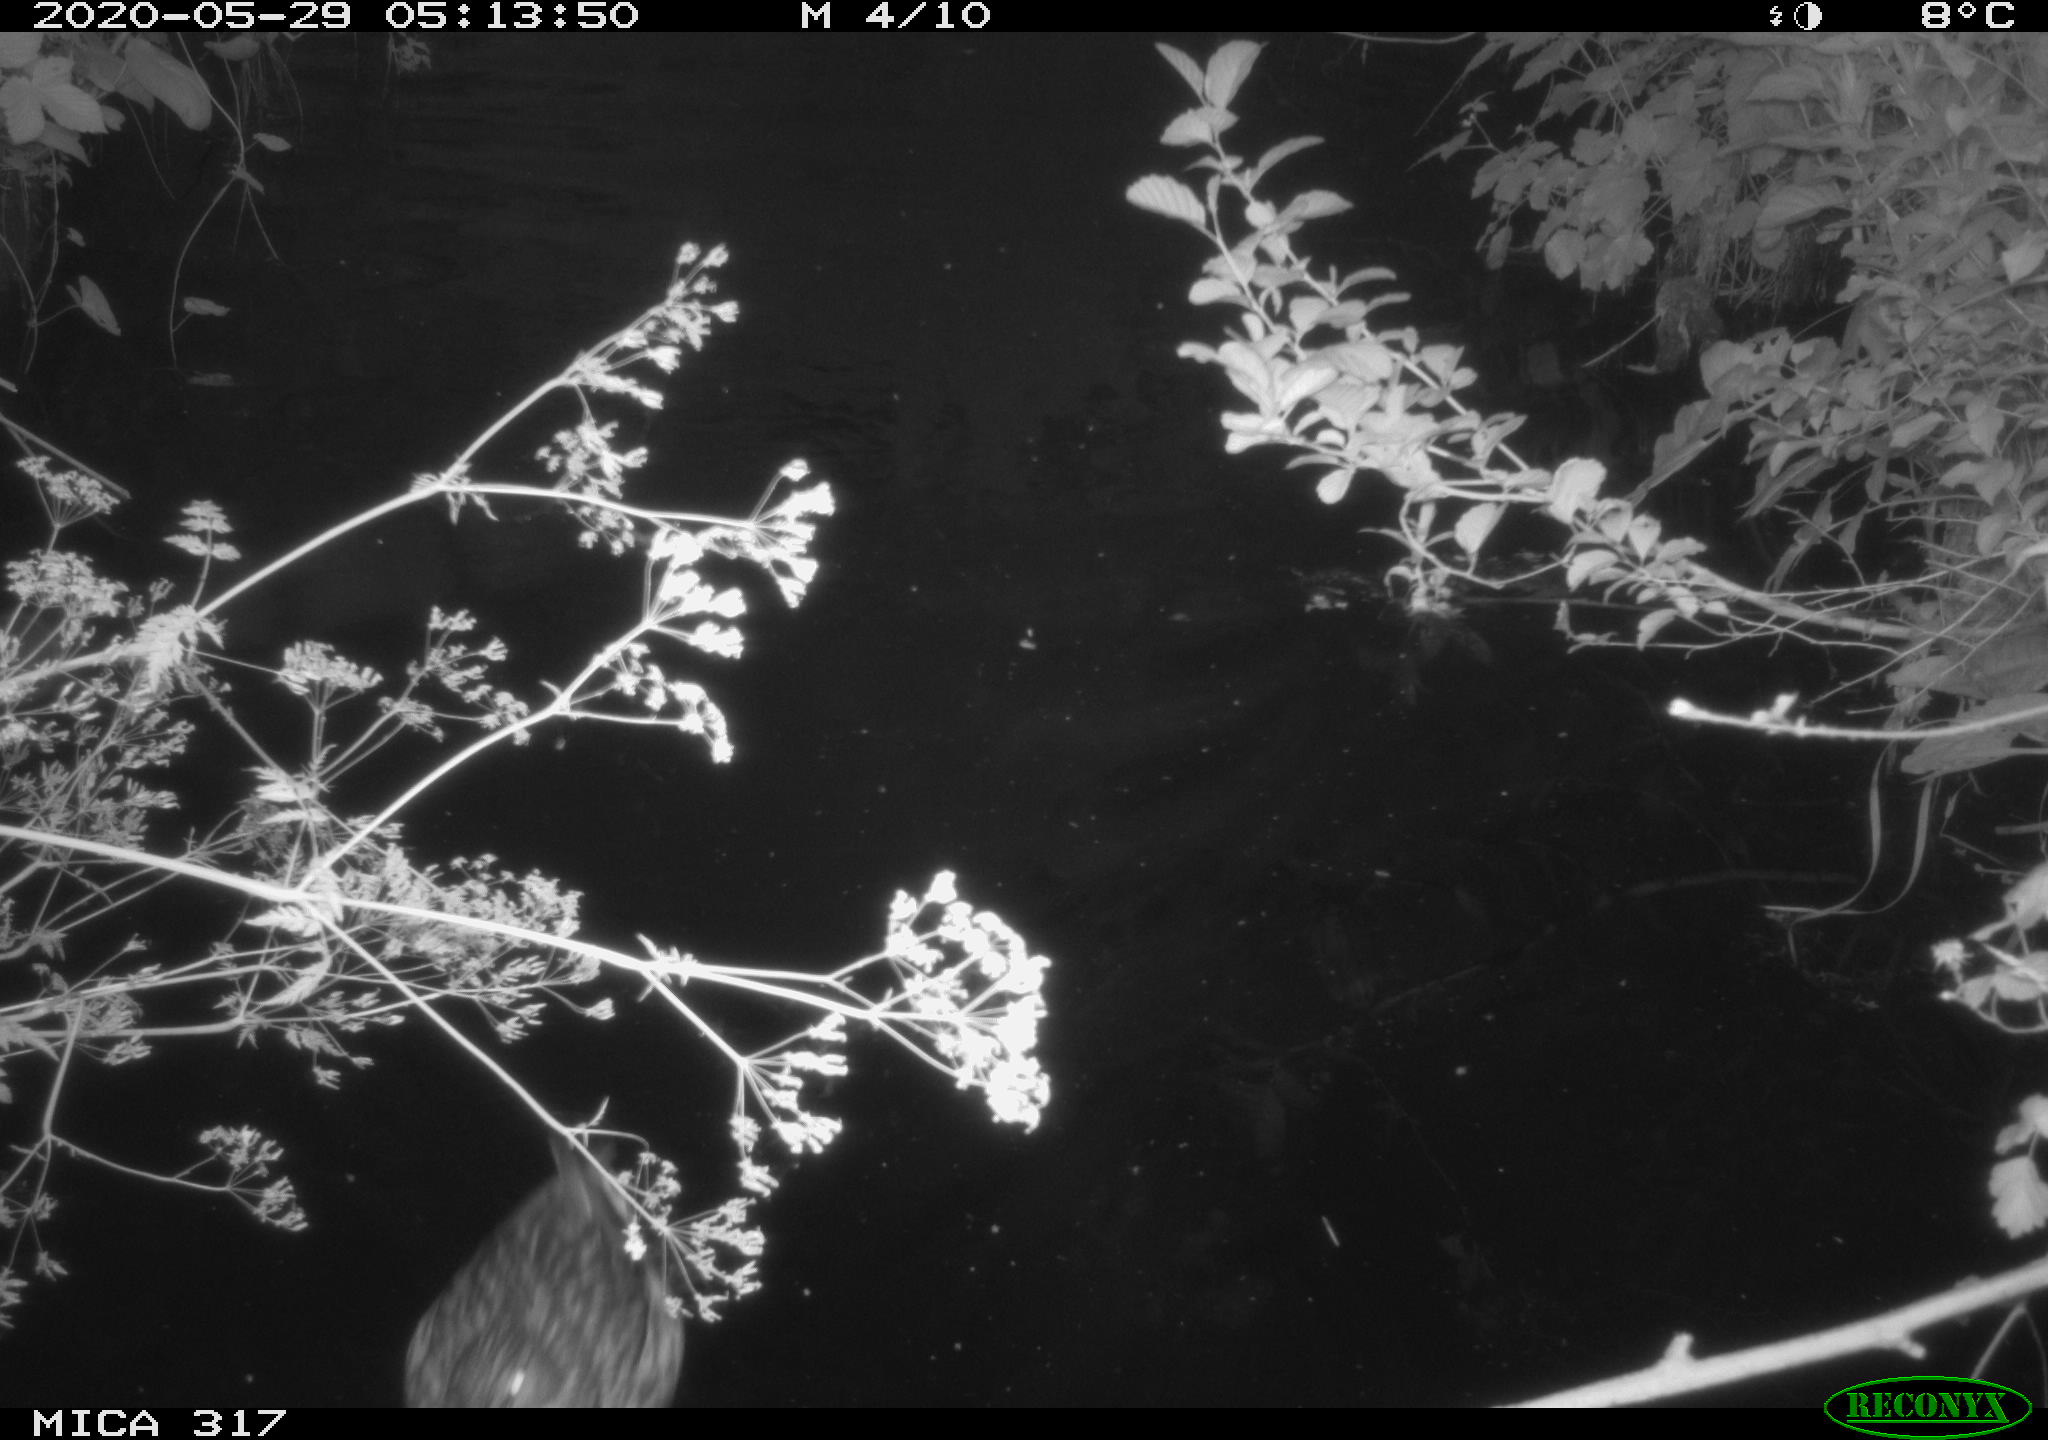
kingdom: Animalia
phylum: Chordata
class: Aves
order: Anseriformes
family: Anatidae
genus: Anas
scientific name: Anas platyrhynchos
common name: Mallard
